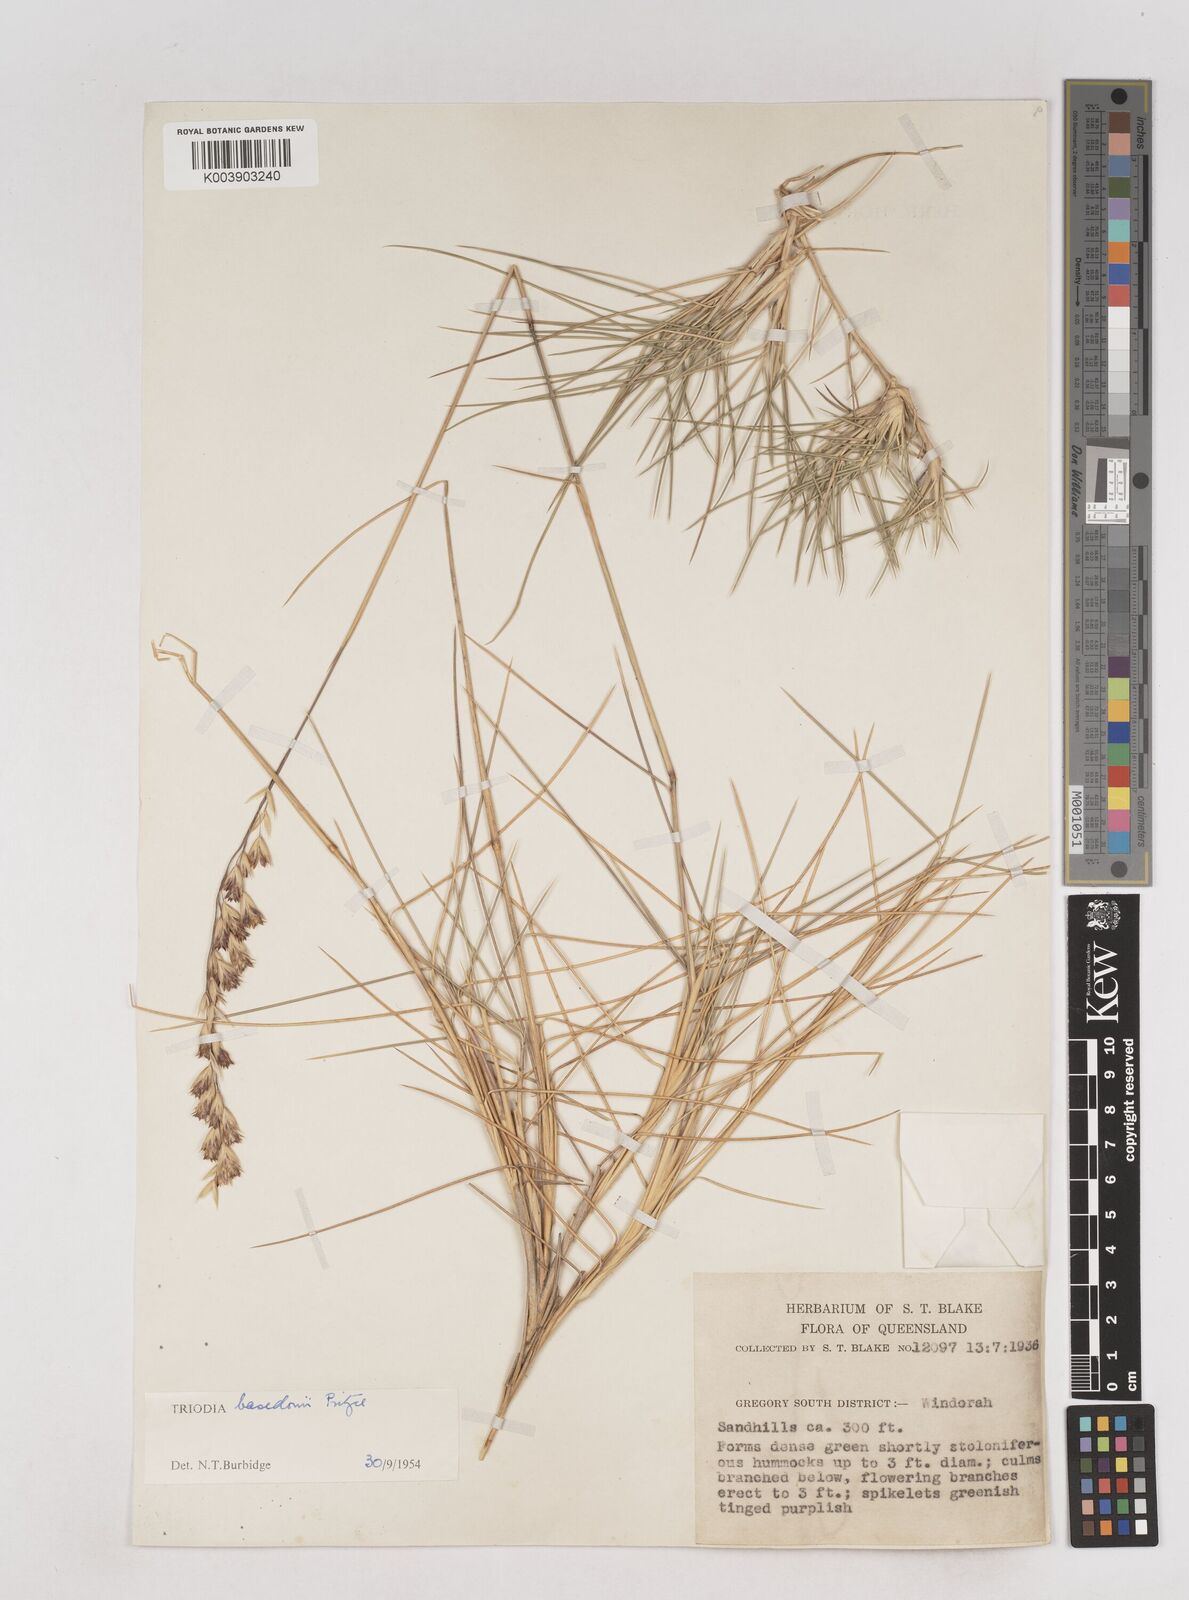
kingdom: Plantae
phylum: Tracheophyta
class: Liliopsida
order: Poales
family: Poaceae
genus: Triodia
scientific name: Triodia basedowii
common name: Hard spinifex
